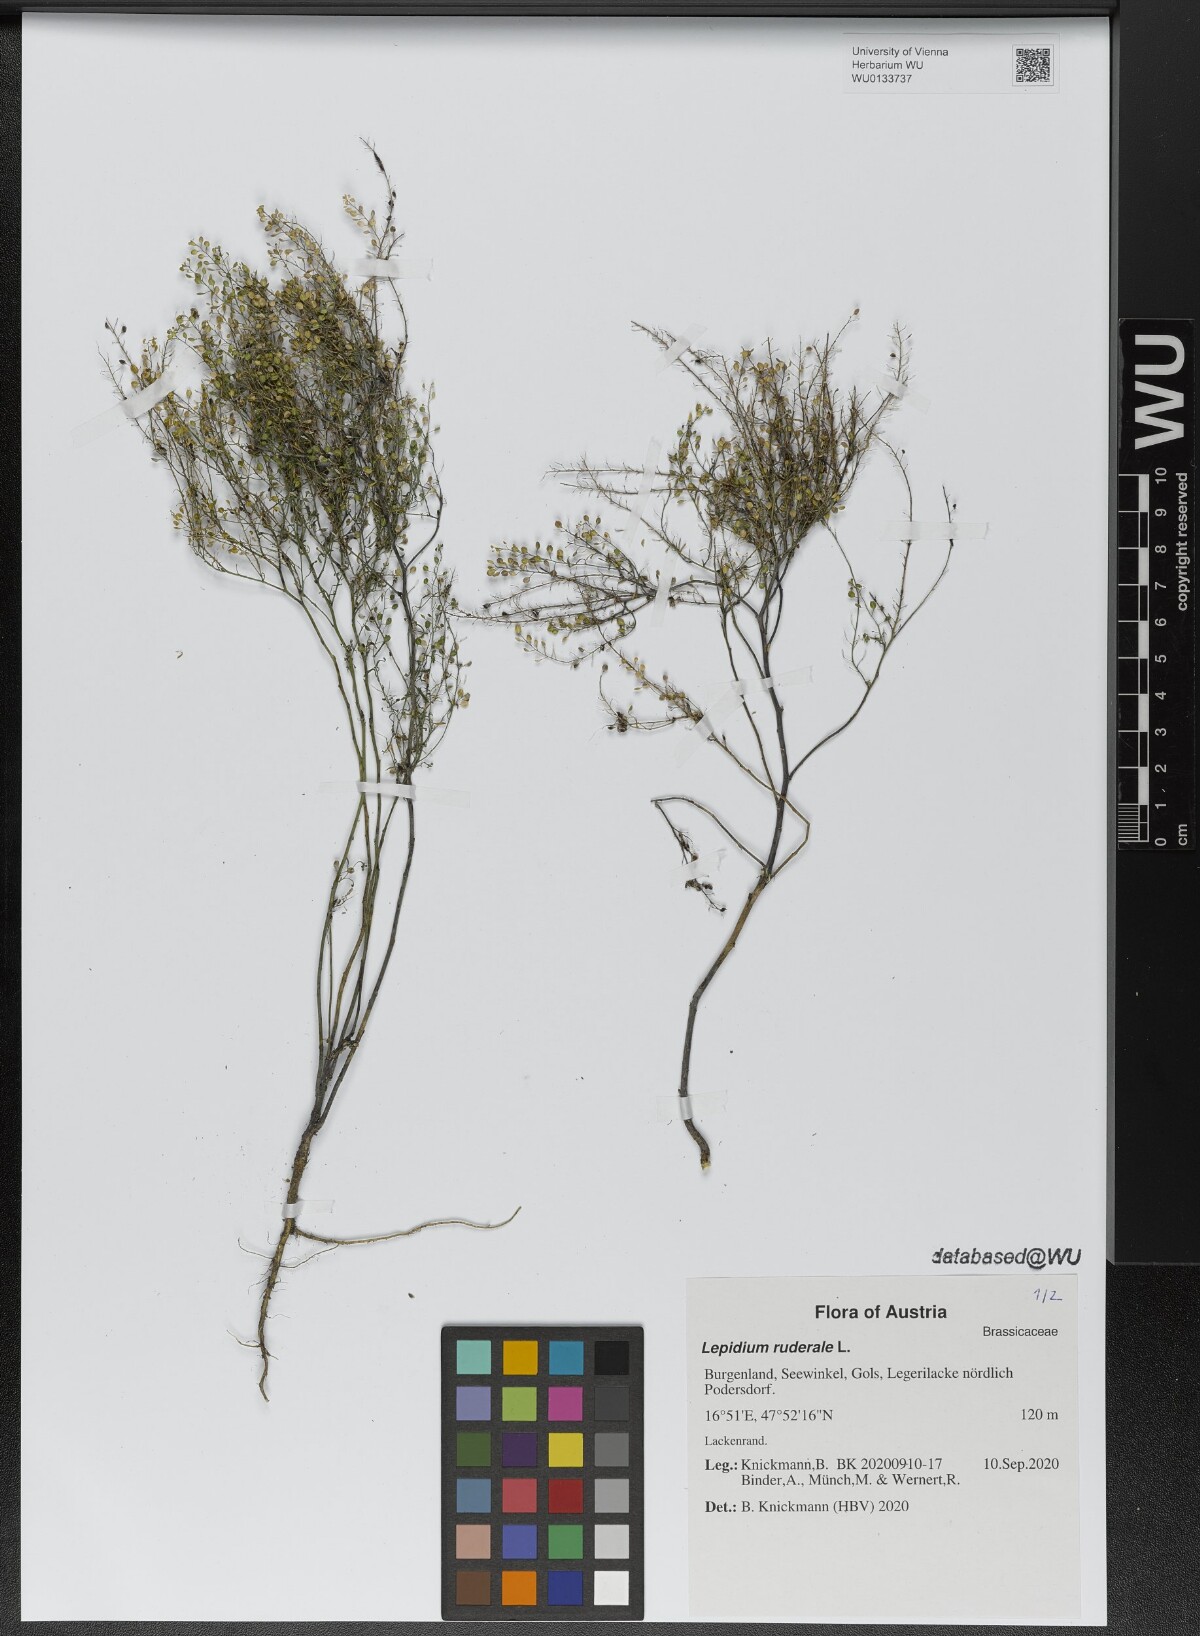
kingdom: Plantae
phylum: Tracheophyta
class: Magnoliopsida
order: Brassicales
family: Brassicaceae
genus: Lepidium
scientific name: Lepidium ruderale
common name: Narrow-leaved pepperwort
